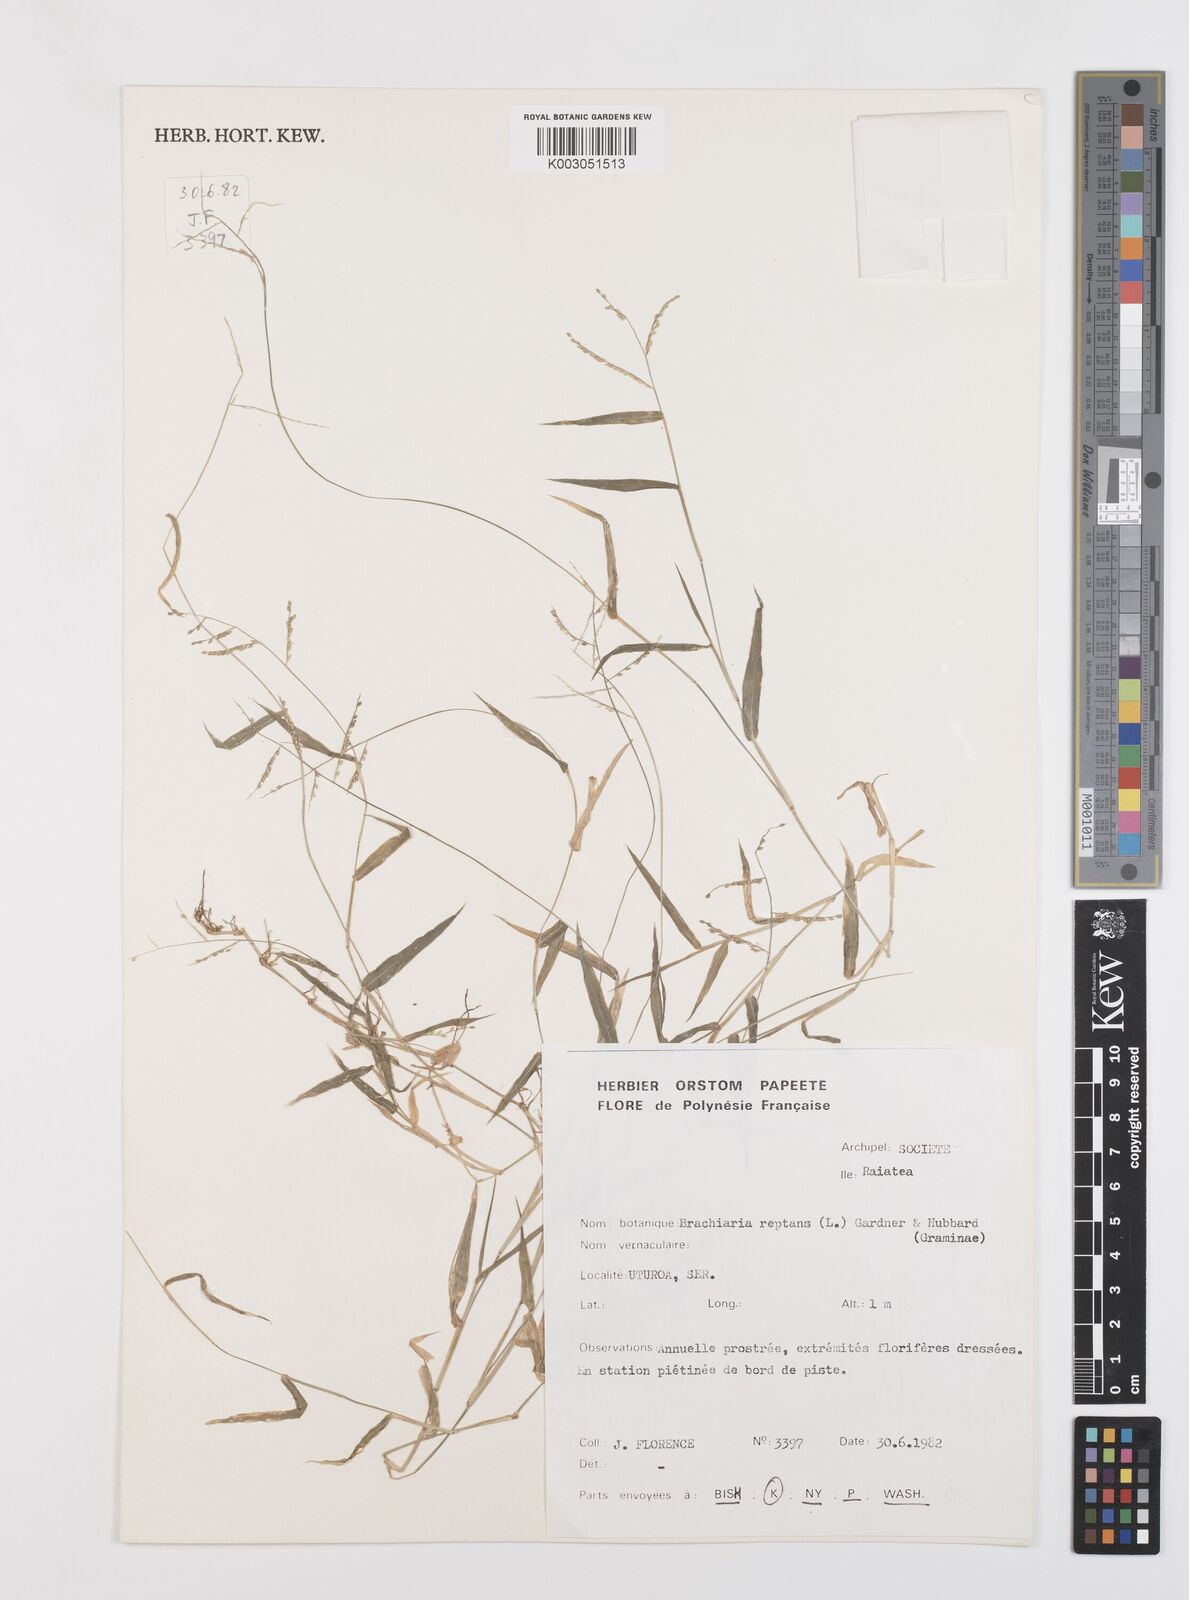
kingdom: Plantae
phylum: Tracheophyta
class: Liliopsida
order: Poales
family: Poaceae
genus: Urochloa
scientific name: Urochloa reptans
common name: Sprawling signalgrass
